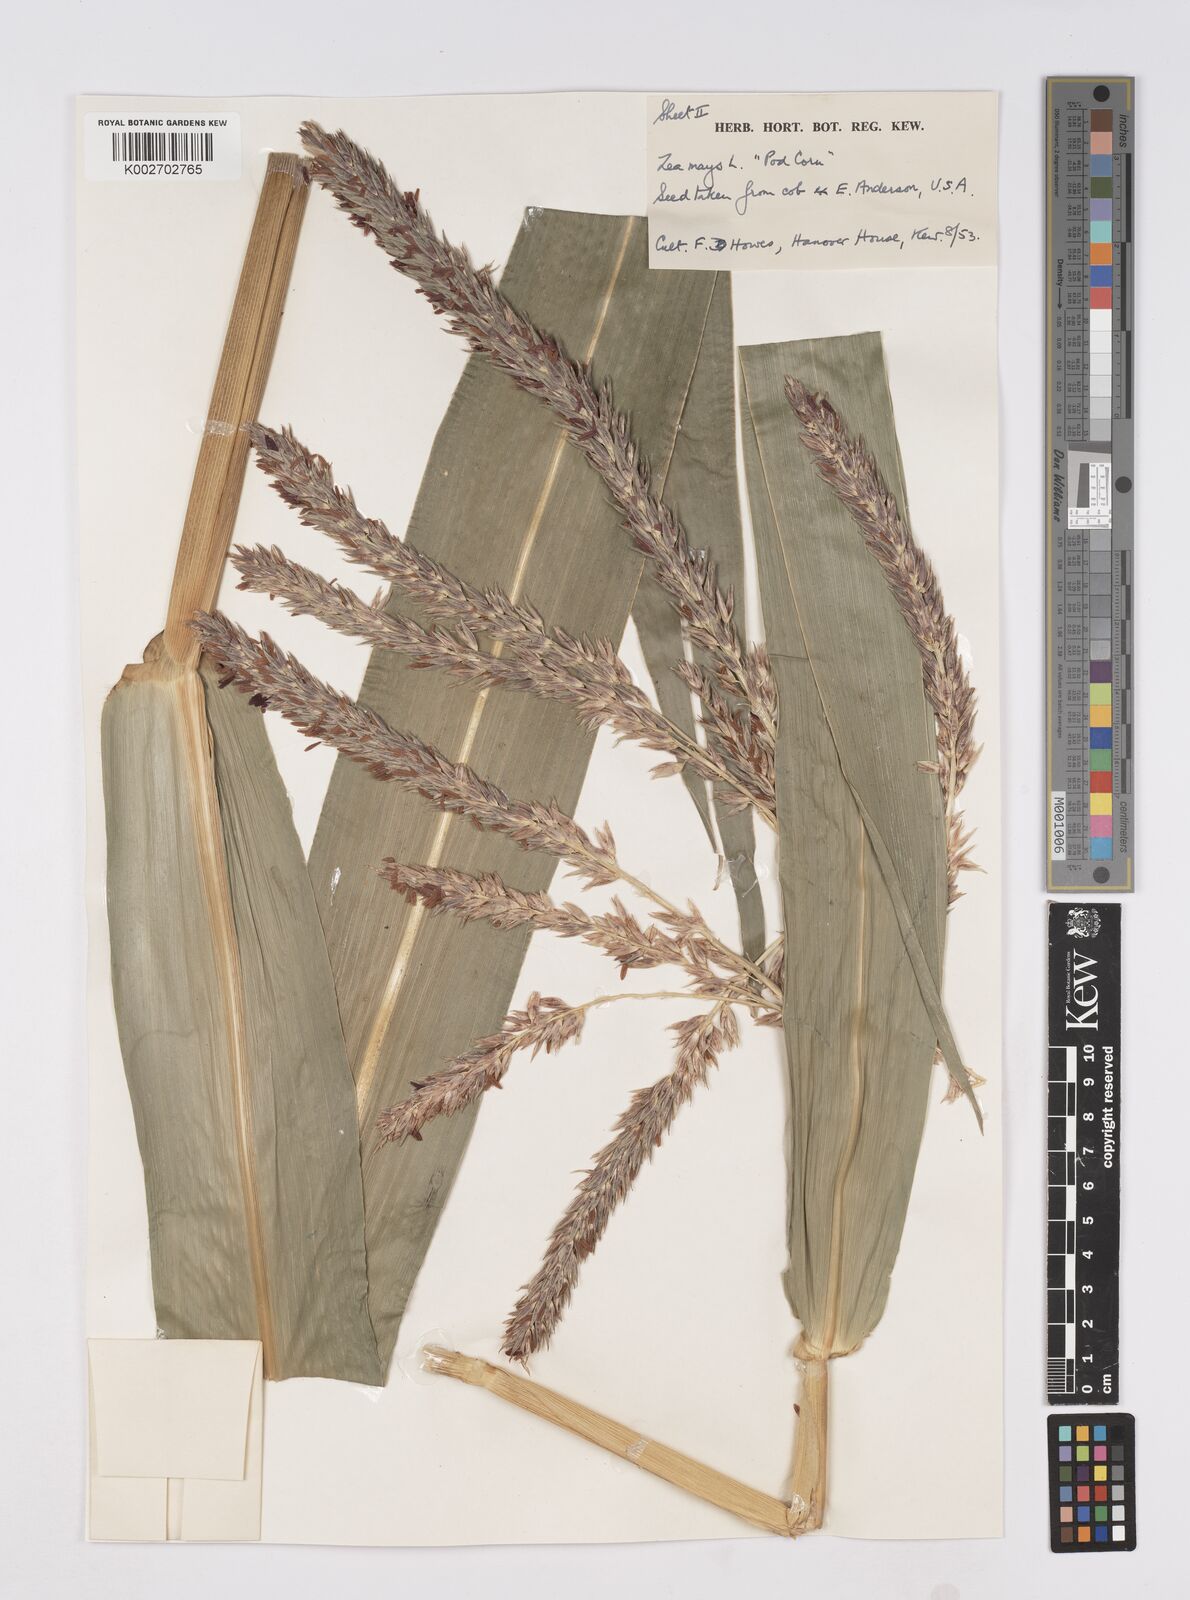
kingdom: Plantae
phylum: Tracheophyta
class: Liliopsida
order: Poales
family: Poaceae
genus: Zea
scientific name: Zea mays
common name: Maize
